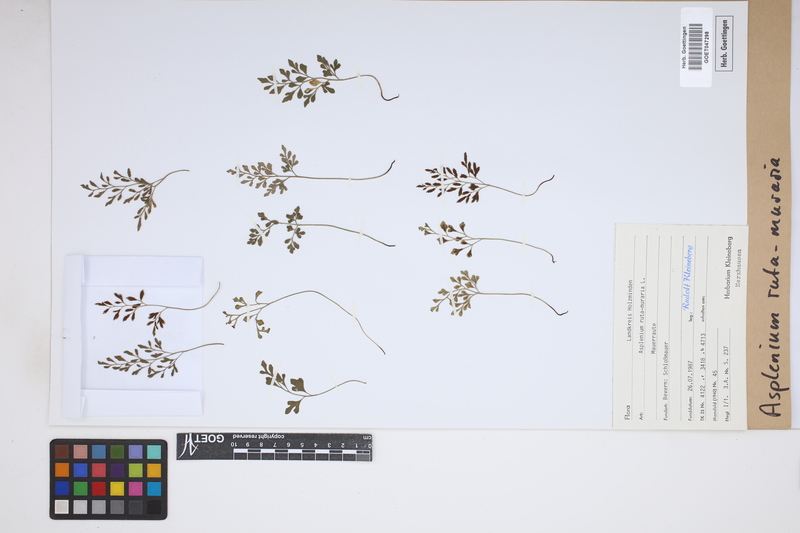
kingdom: Plantae
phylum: Tracheophyta
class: Polypodiopsida
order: Polypodiales
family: Aspleniaceae
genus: Asplenium
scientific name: Asplenium ruta-muraria
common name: Wall-rue
